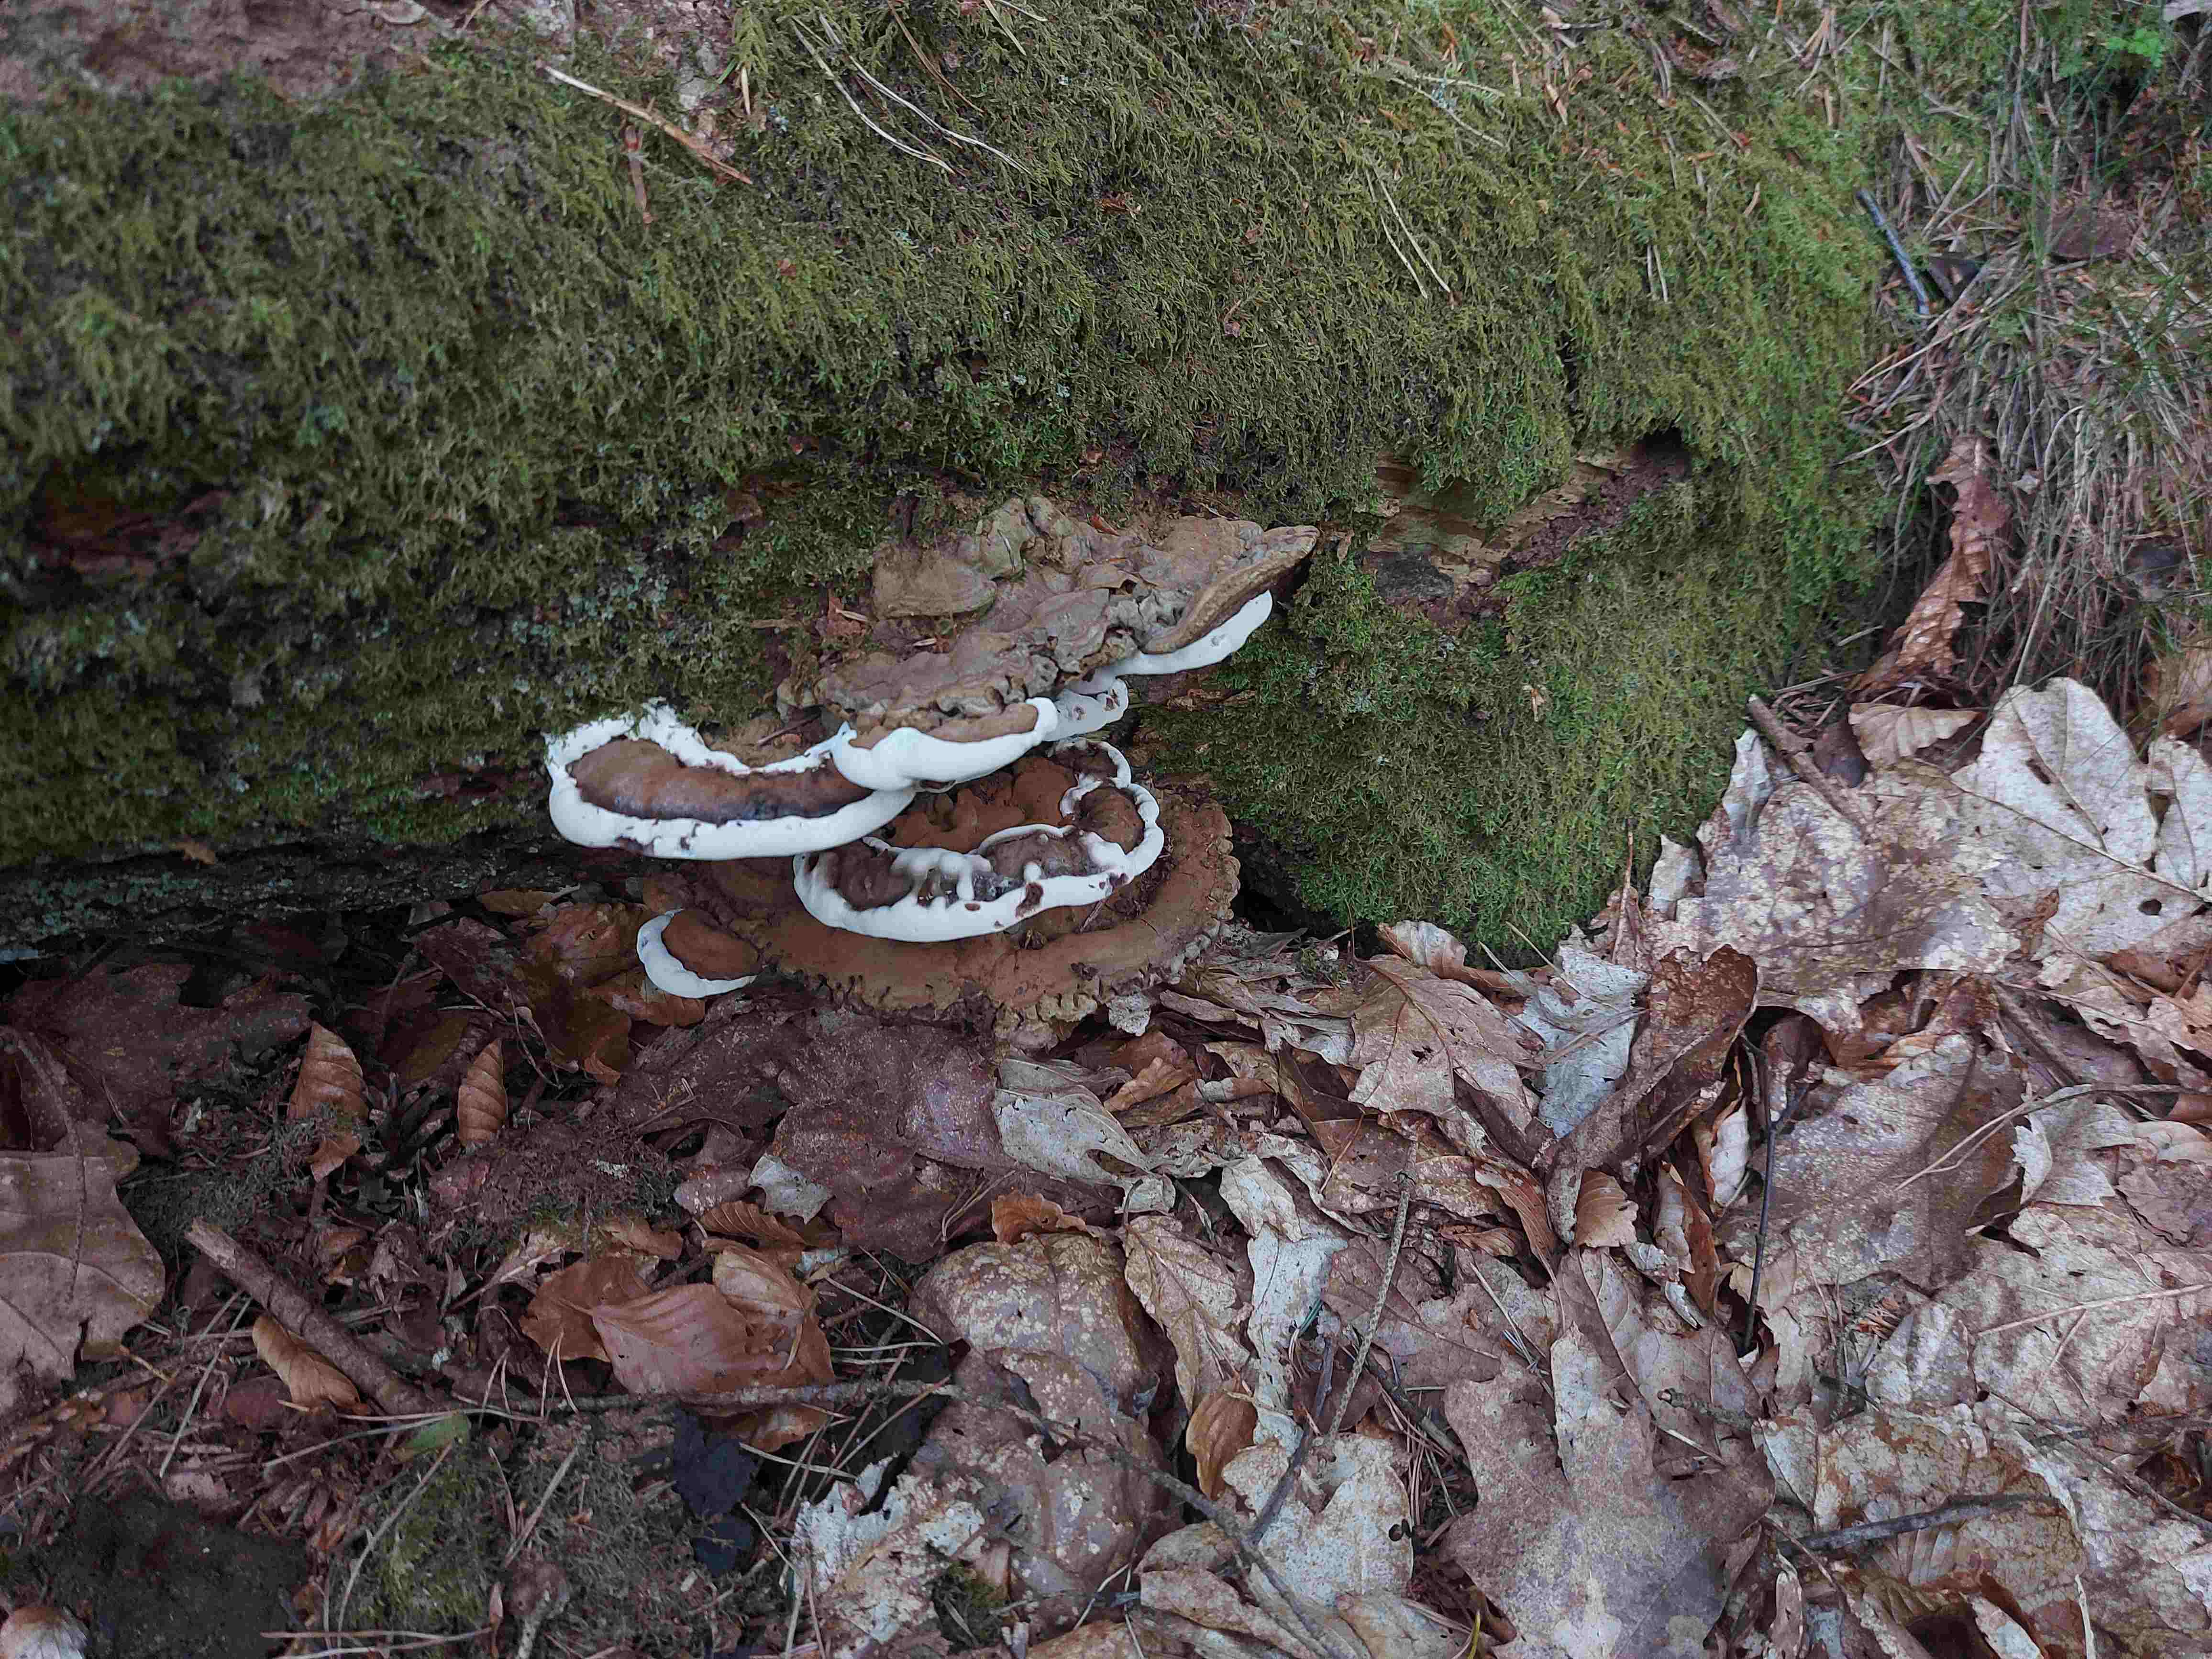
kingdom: Fungi
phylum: Basidiomycota
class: Agaricomycetes
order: Polyporales
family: Polyporaceae
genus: Ganoderma
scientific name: Ganoderma applanatum
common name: flad lakporesvamp
